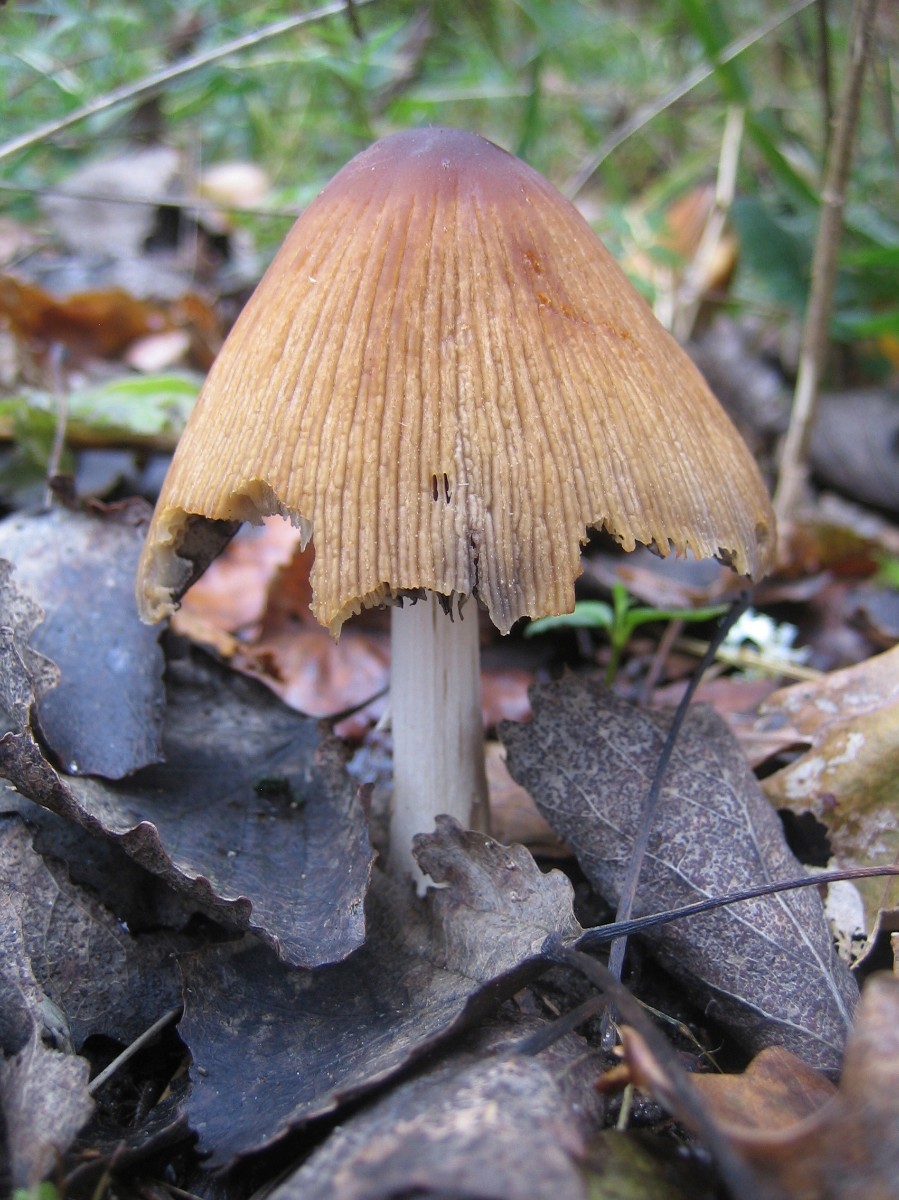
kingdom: Fungi
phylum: Basidiomycota
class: Agaricomycetes
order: Agaricales
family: Psathyrellaceae
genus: Coprinellus
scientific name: Coprinellus micaceus
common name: glimmer-blækhat
